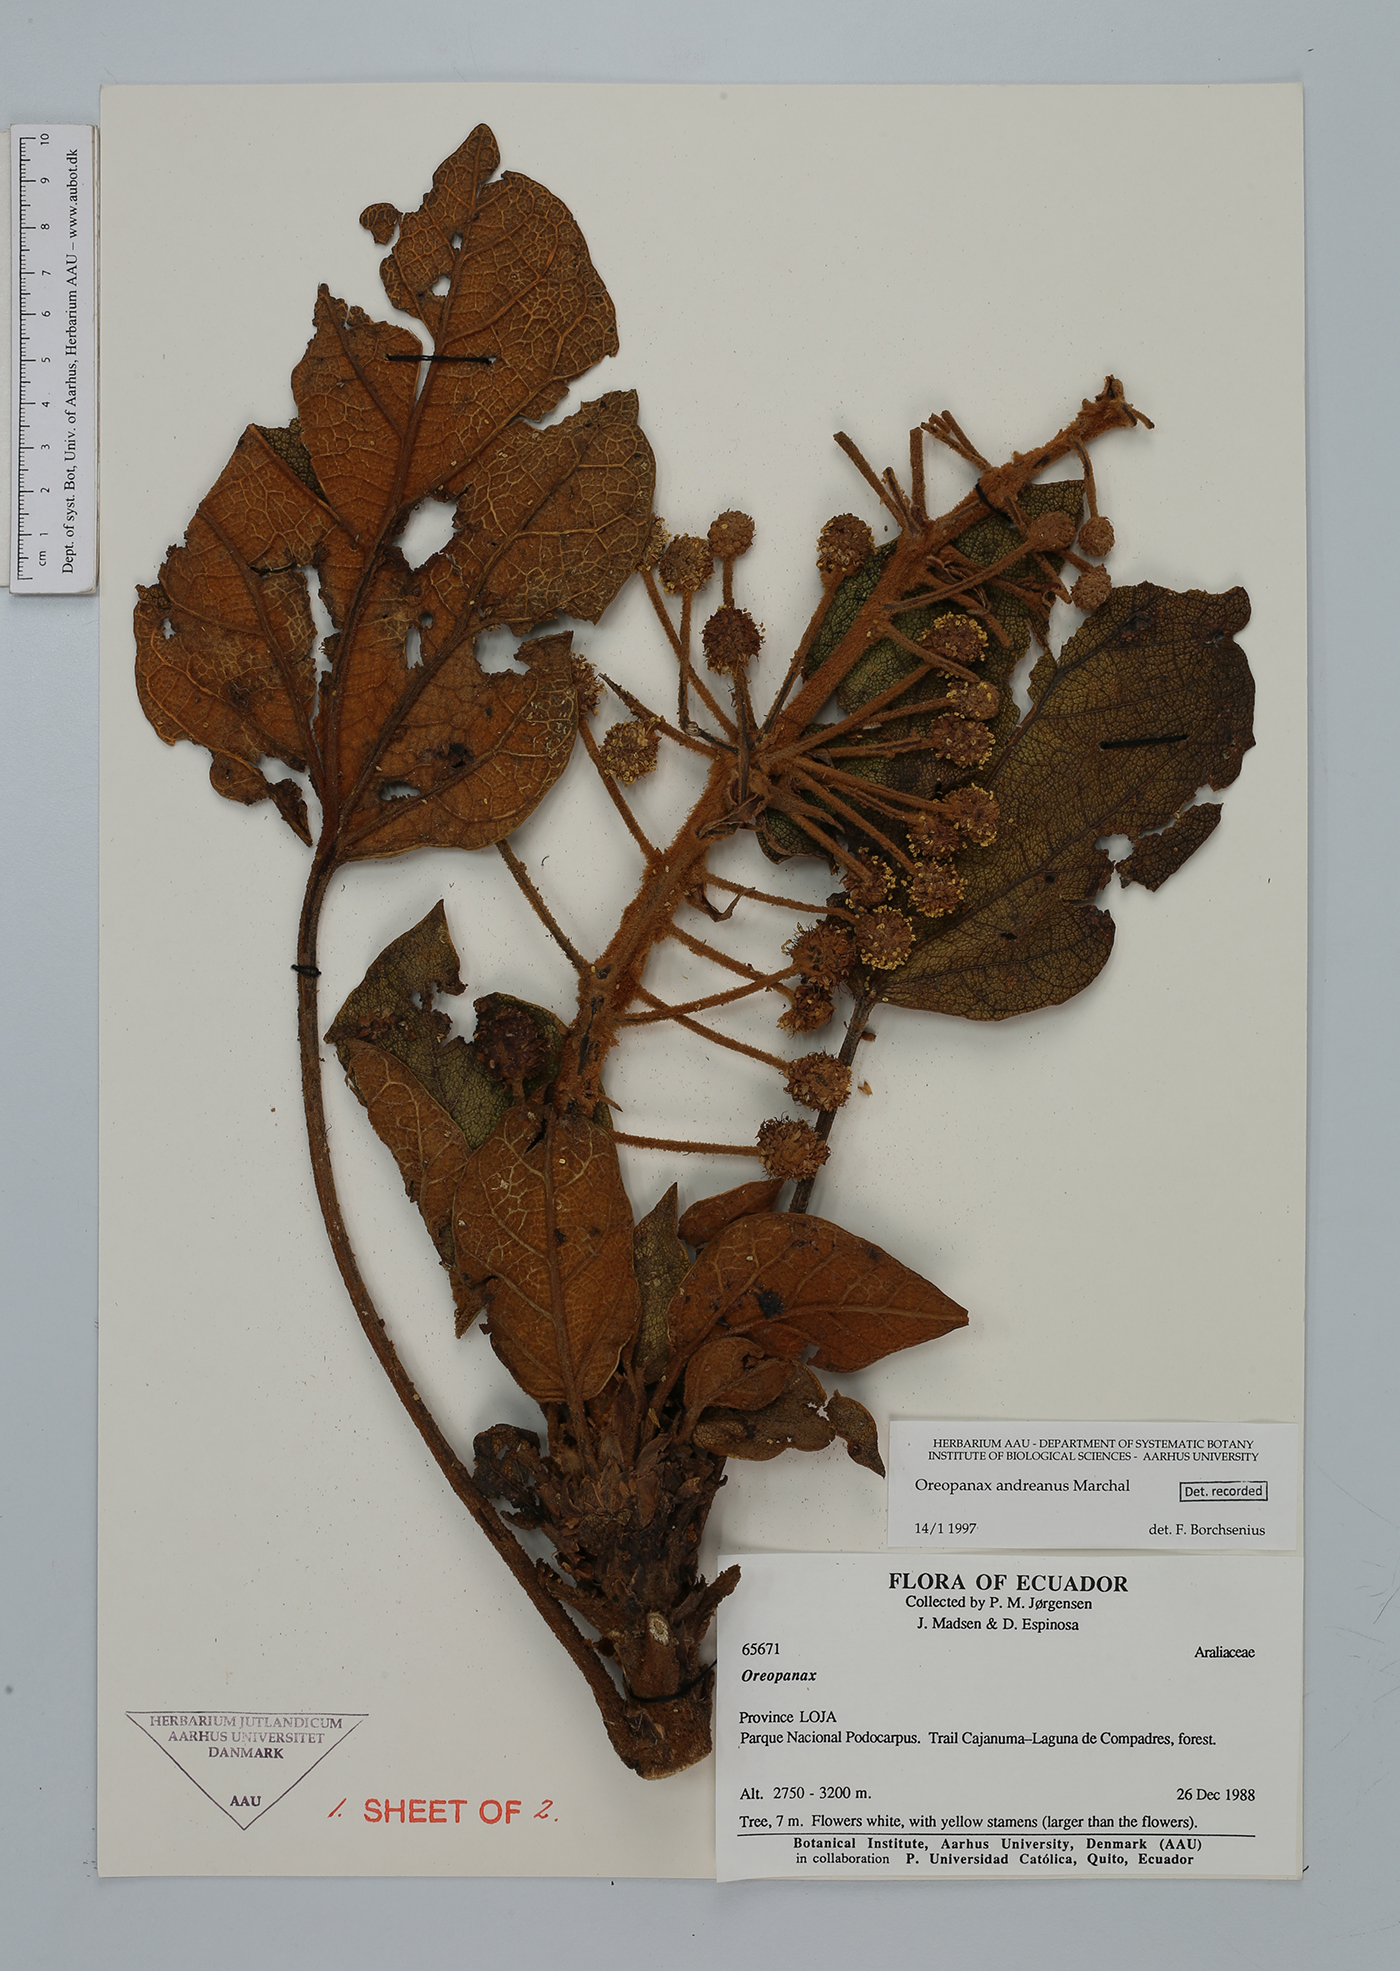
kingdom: Plantae
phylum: Tracheophyta
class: Magnoliopsida
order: Apiales
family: Araliaceae
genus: Oreopanax
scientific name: Oreopanax sessiliflorus
